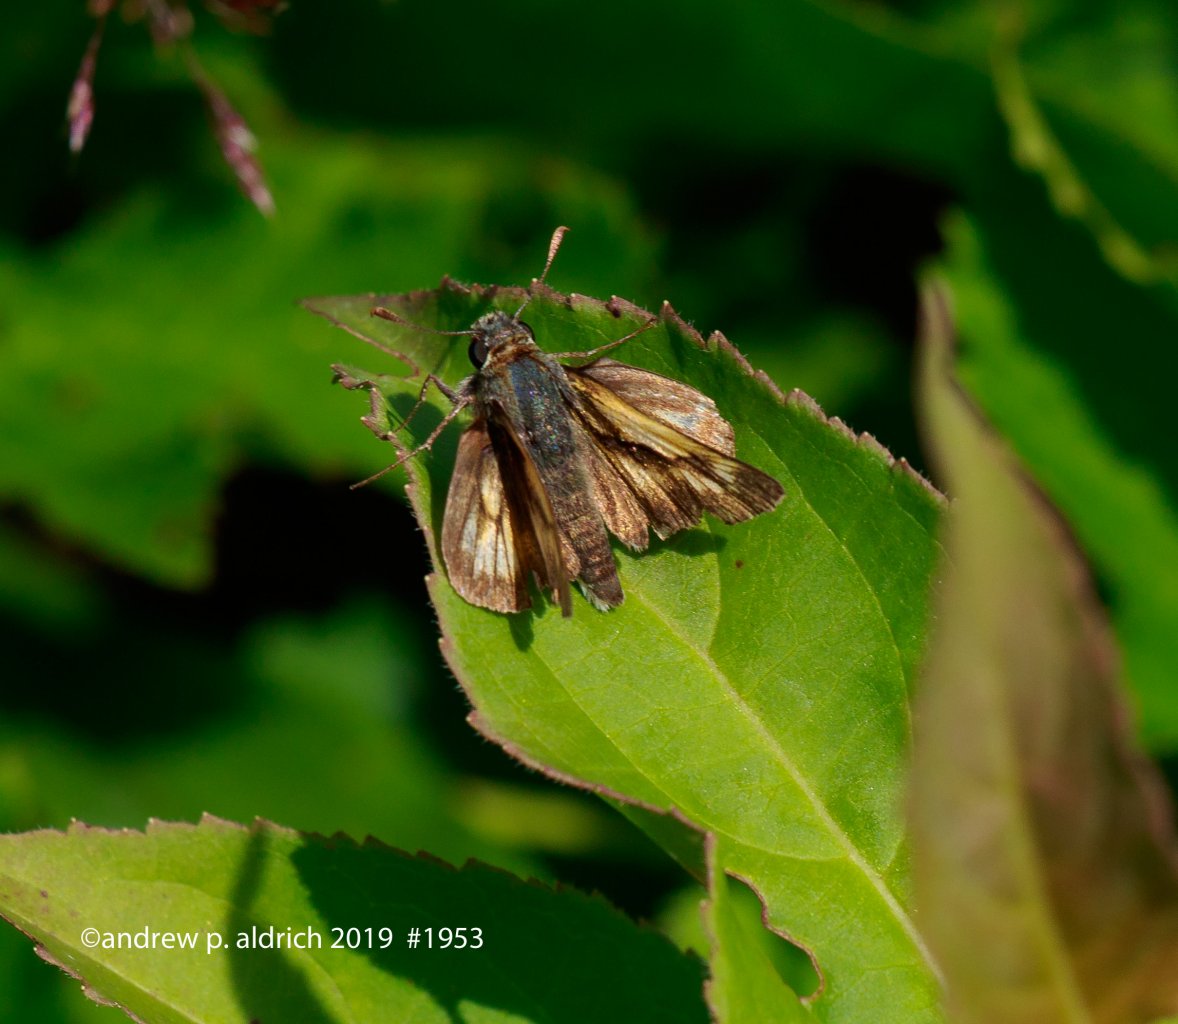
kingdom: Animalia
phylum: Arthropoda
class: Insecta
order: Lepidoptera
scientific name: Lepidoptera
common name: Butterflies
